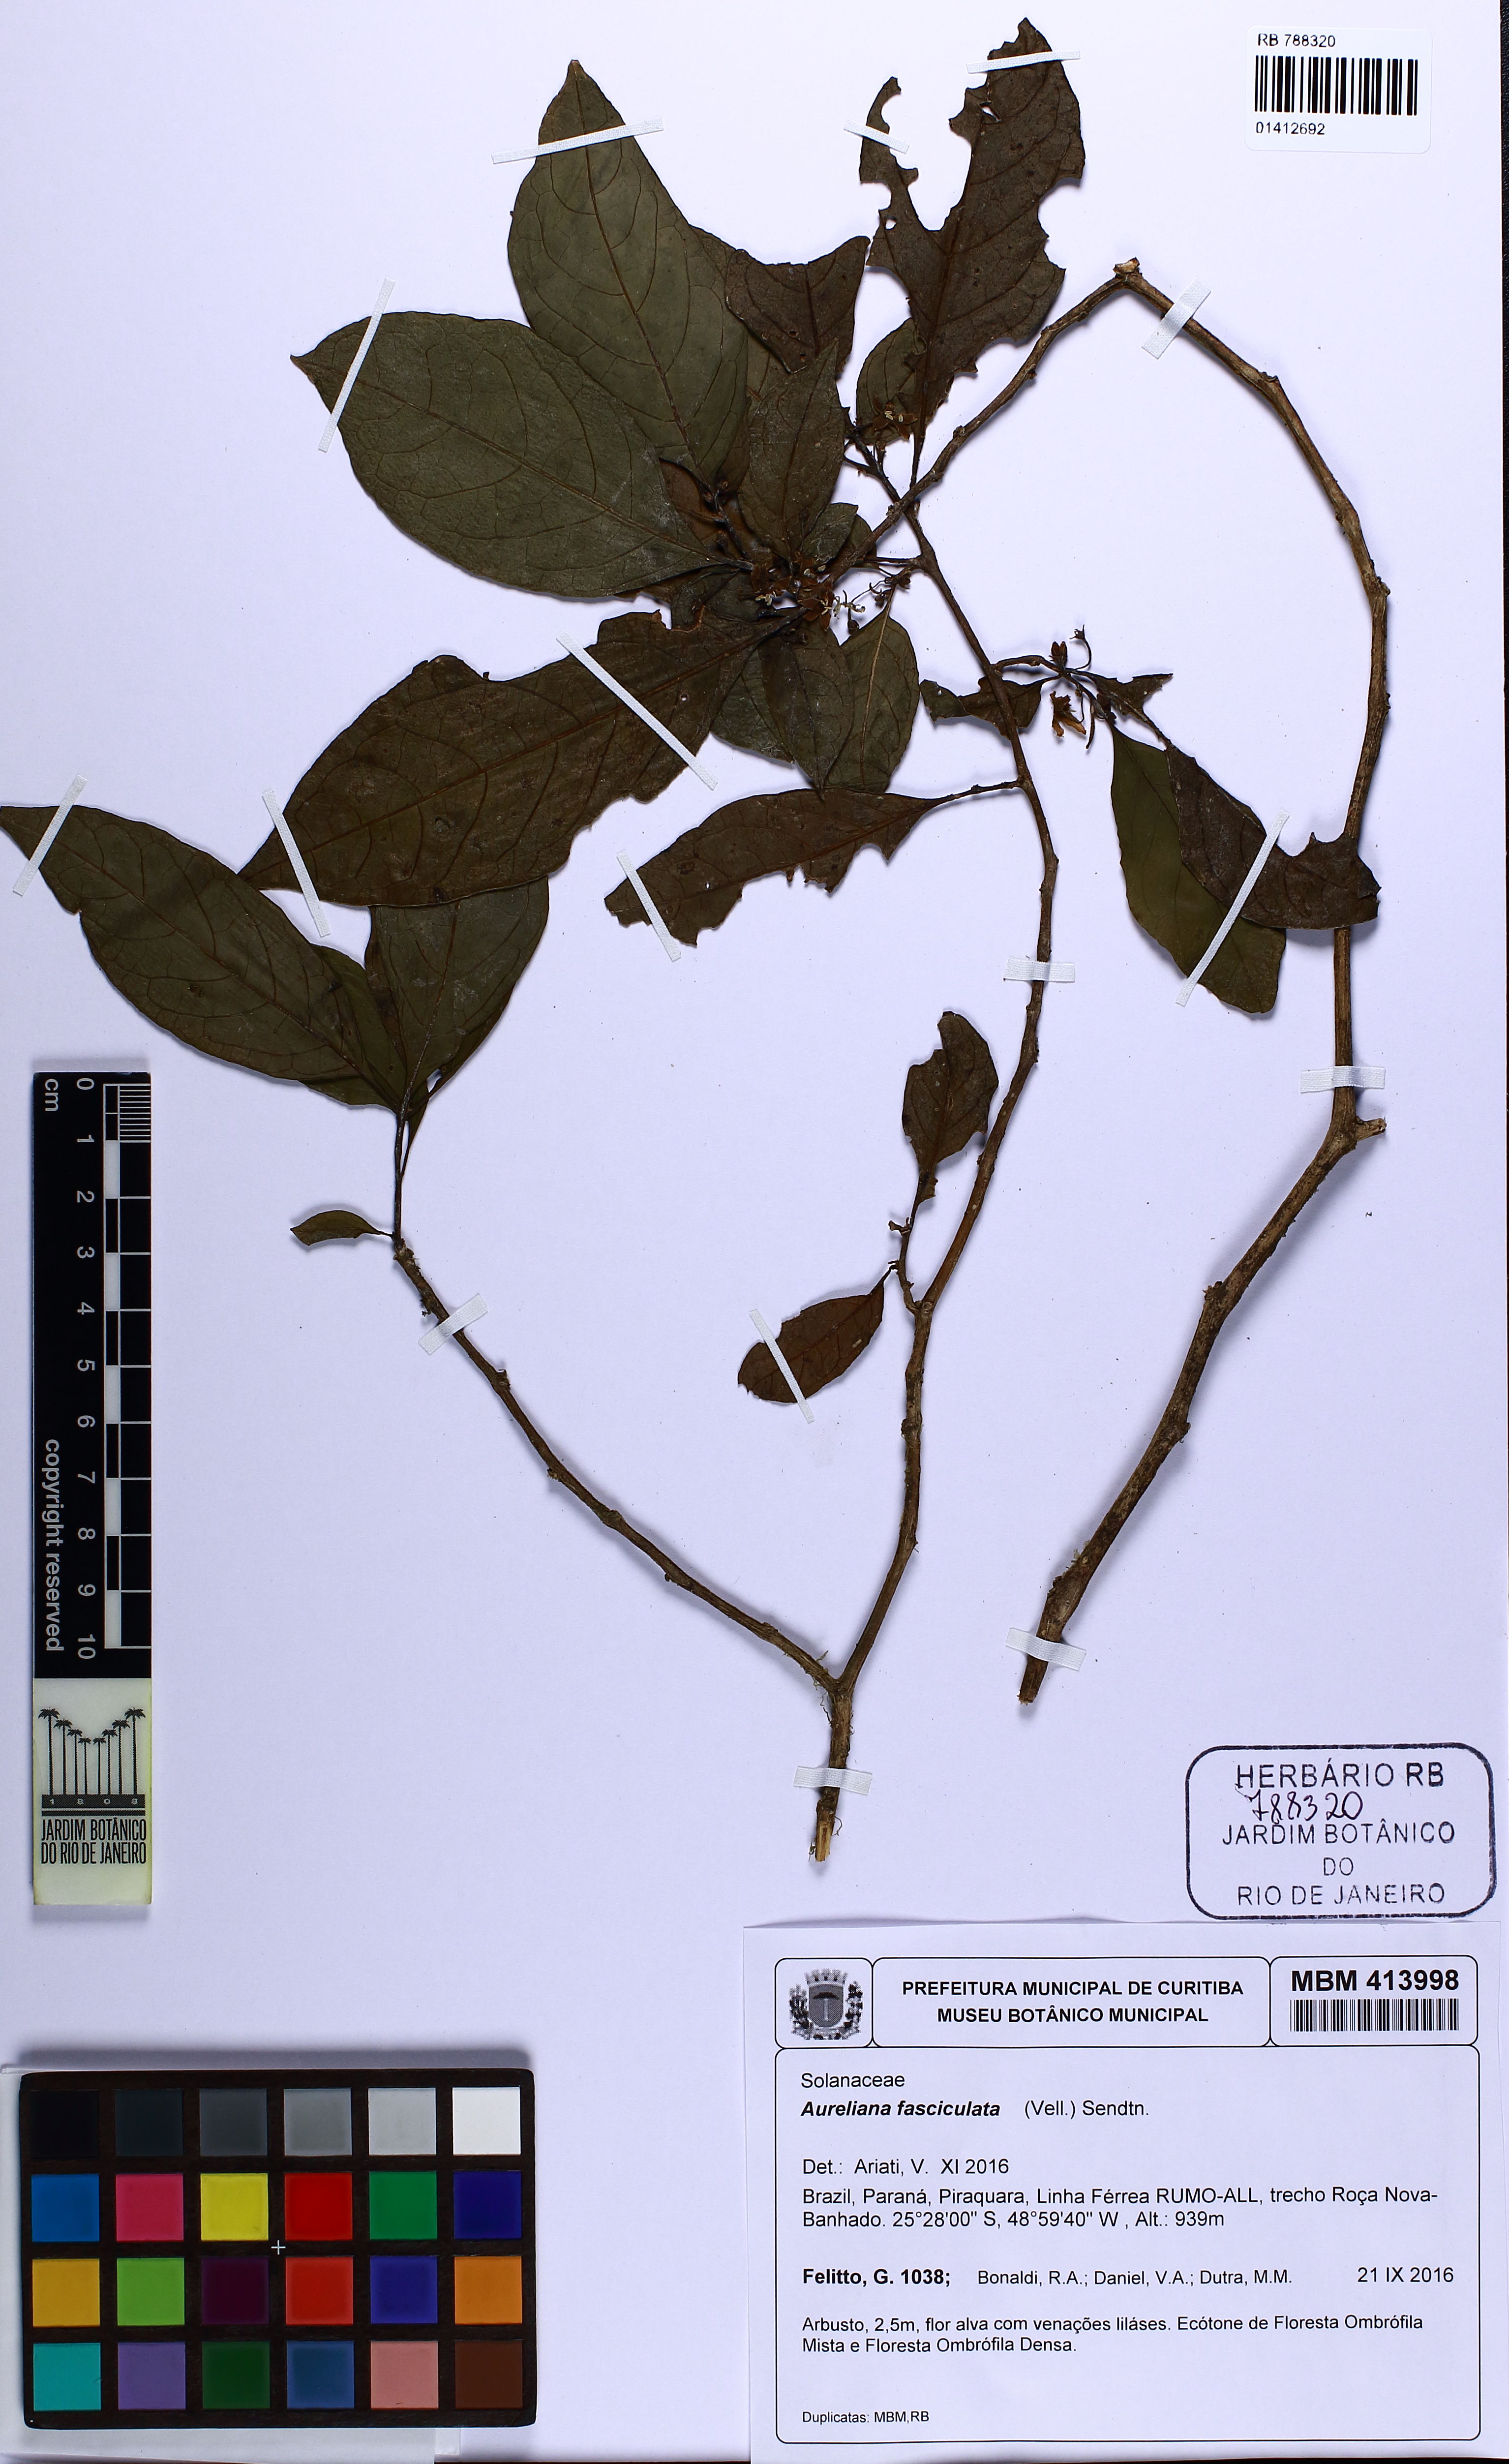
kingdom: Plantae
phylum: Tracheophyta
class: Magnoliopsida
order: Solanales
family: Solanaceae
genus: Athenaea
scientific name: Athenaea fasciculata
